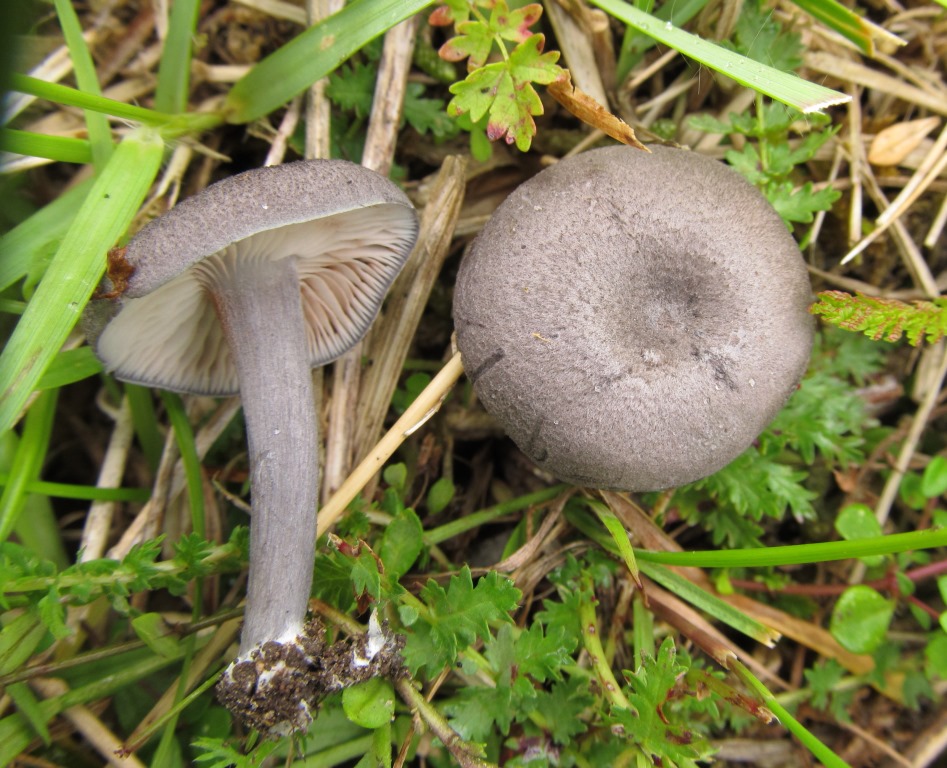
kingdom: Fungi
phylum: Basidiomycota
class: Agaricomycetes
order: Agaricales
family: Entolomataceae
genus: Entoloma
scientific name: Entoloma mougeotii
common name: violetgrå rødblad
